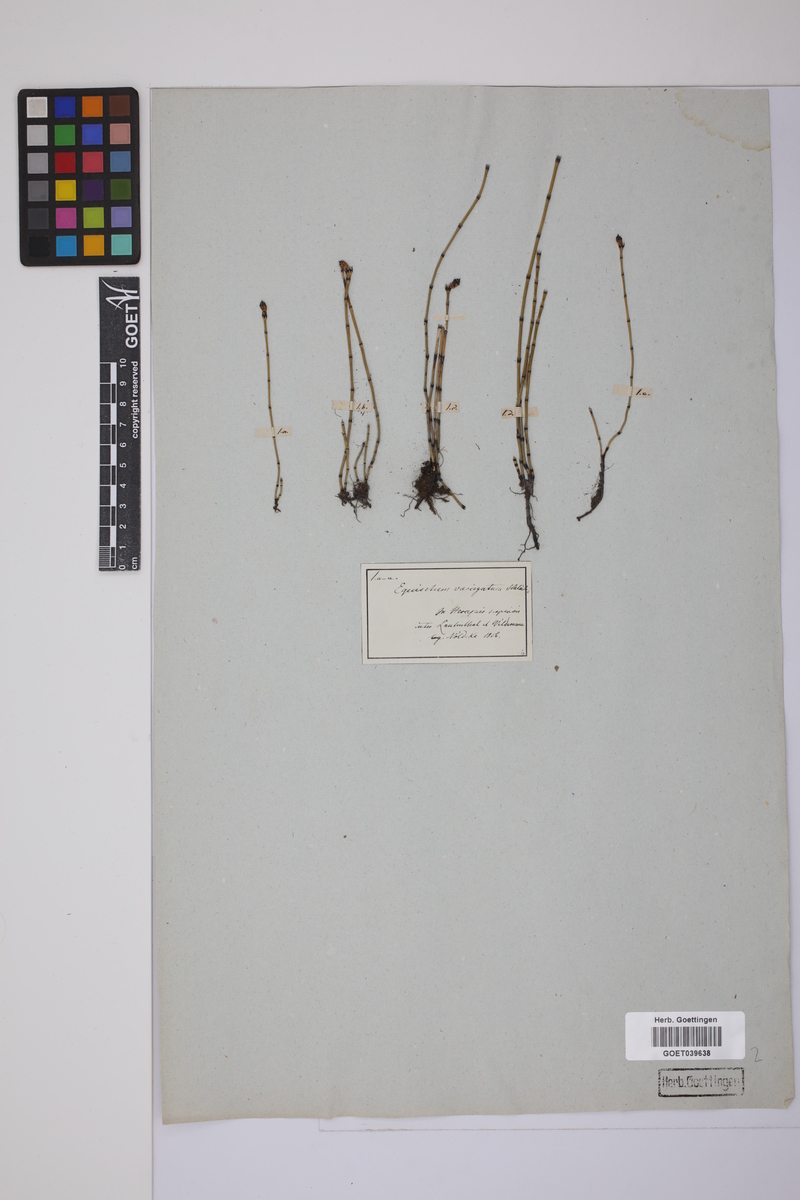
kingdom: Plantae
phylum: Tracheophyta
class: Polypodiopsida
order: Equisetales
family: Equisetaceae
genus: Equisetum
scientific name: Equisetum variegatum
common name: Variegated horsetail
